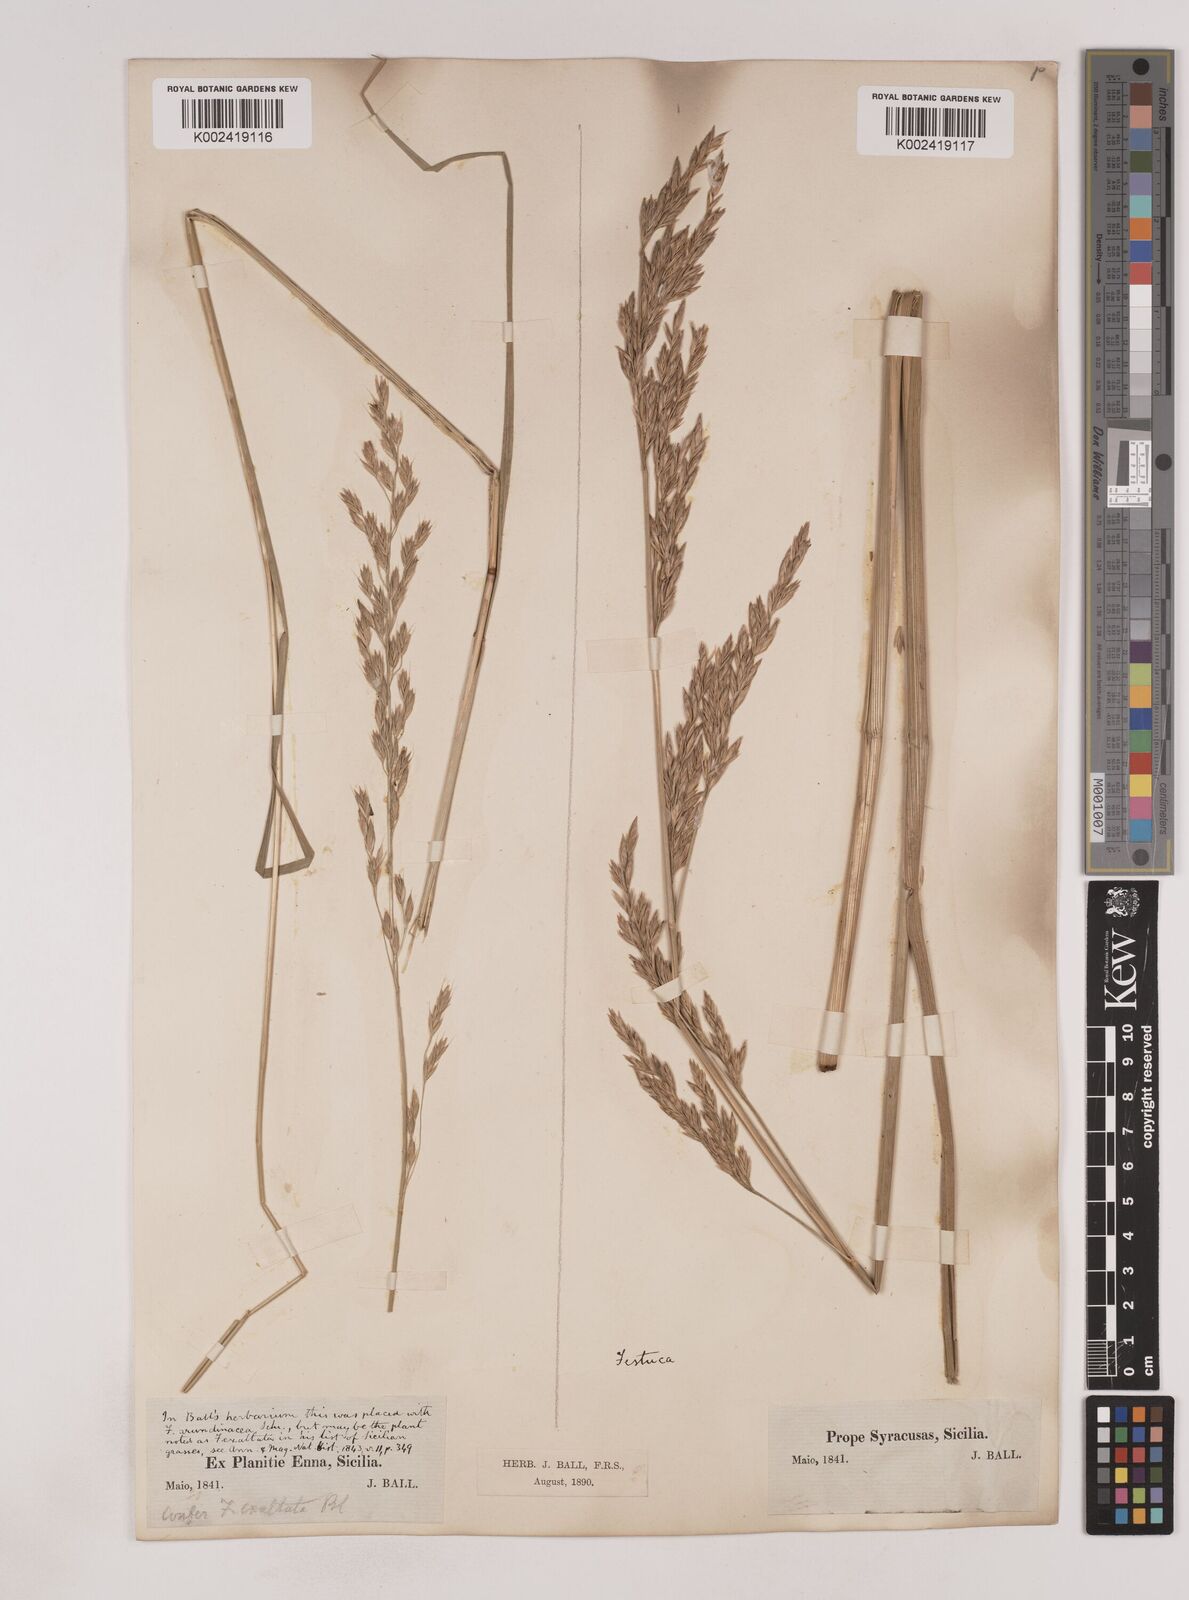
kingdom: Plantae
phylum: Tracheophyta
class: Liliopsida
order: Poales
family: Poaceae
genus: Festuca
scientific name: Festuca drymeja
